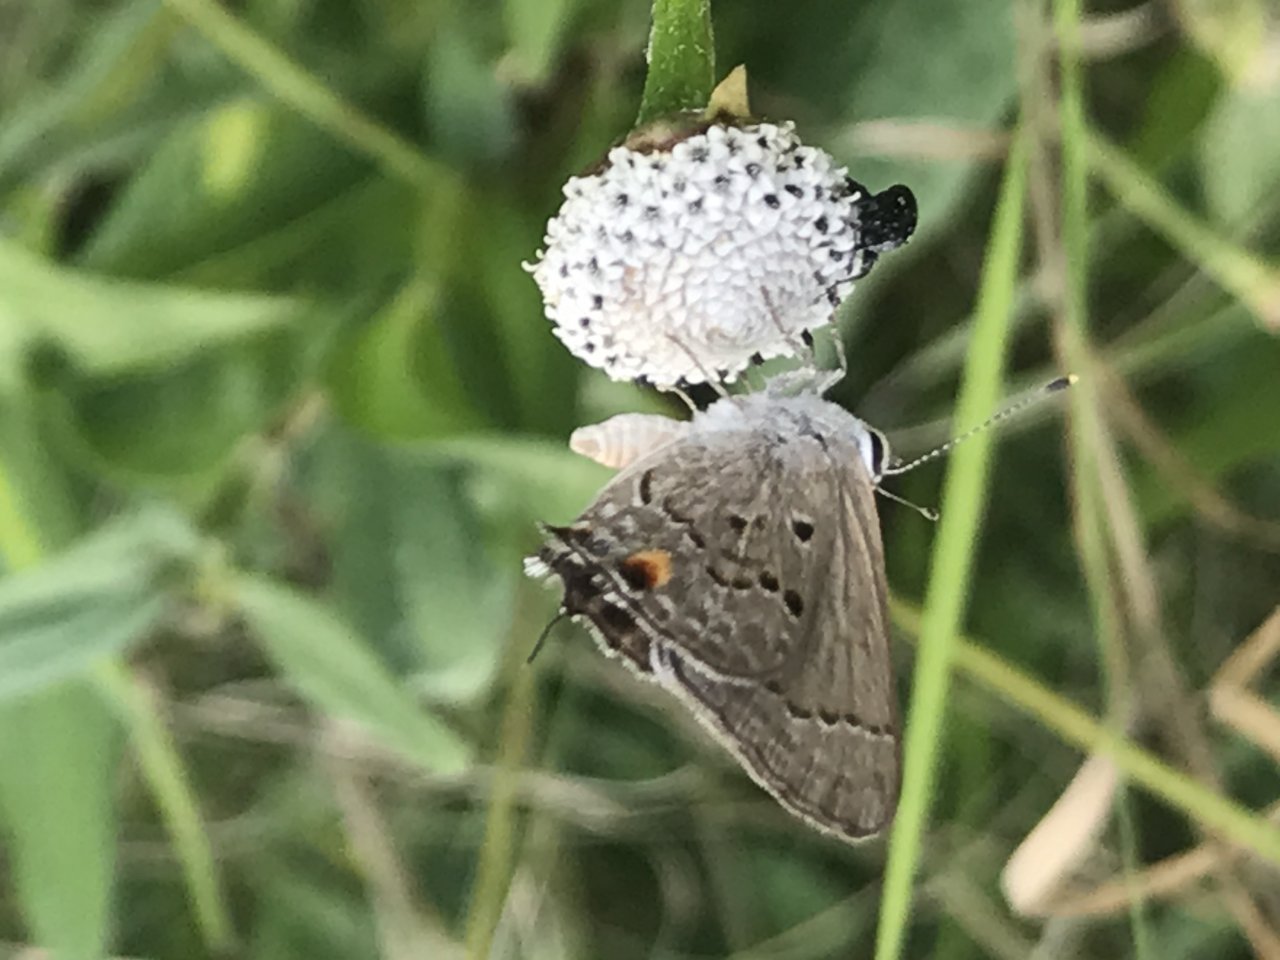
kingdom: Animalia
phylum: Arthropoda
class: Insecta
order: Lepidoptera
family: Lycaenidae
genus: Callicista
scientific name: Callicista columella
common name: Mallow Scrub-Hairstreak
